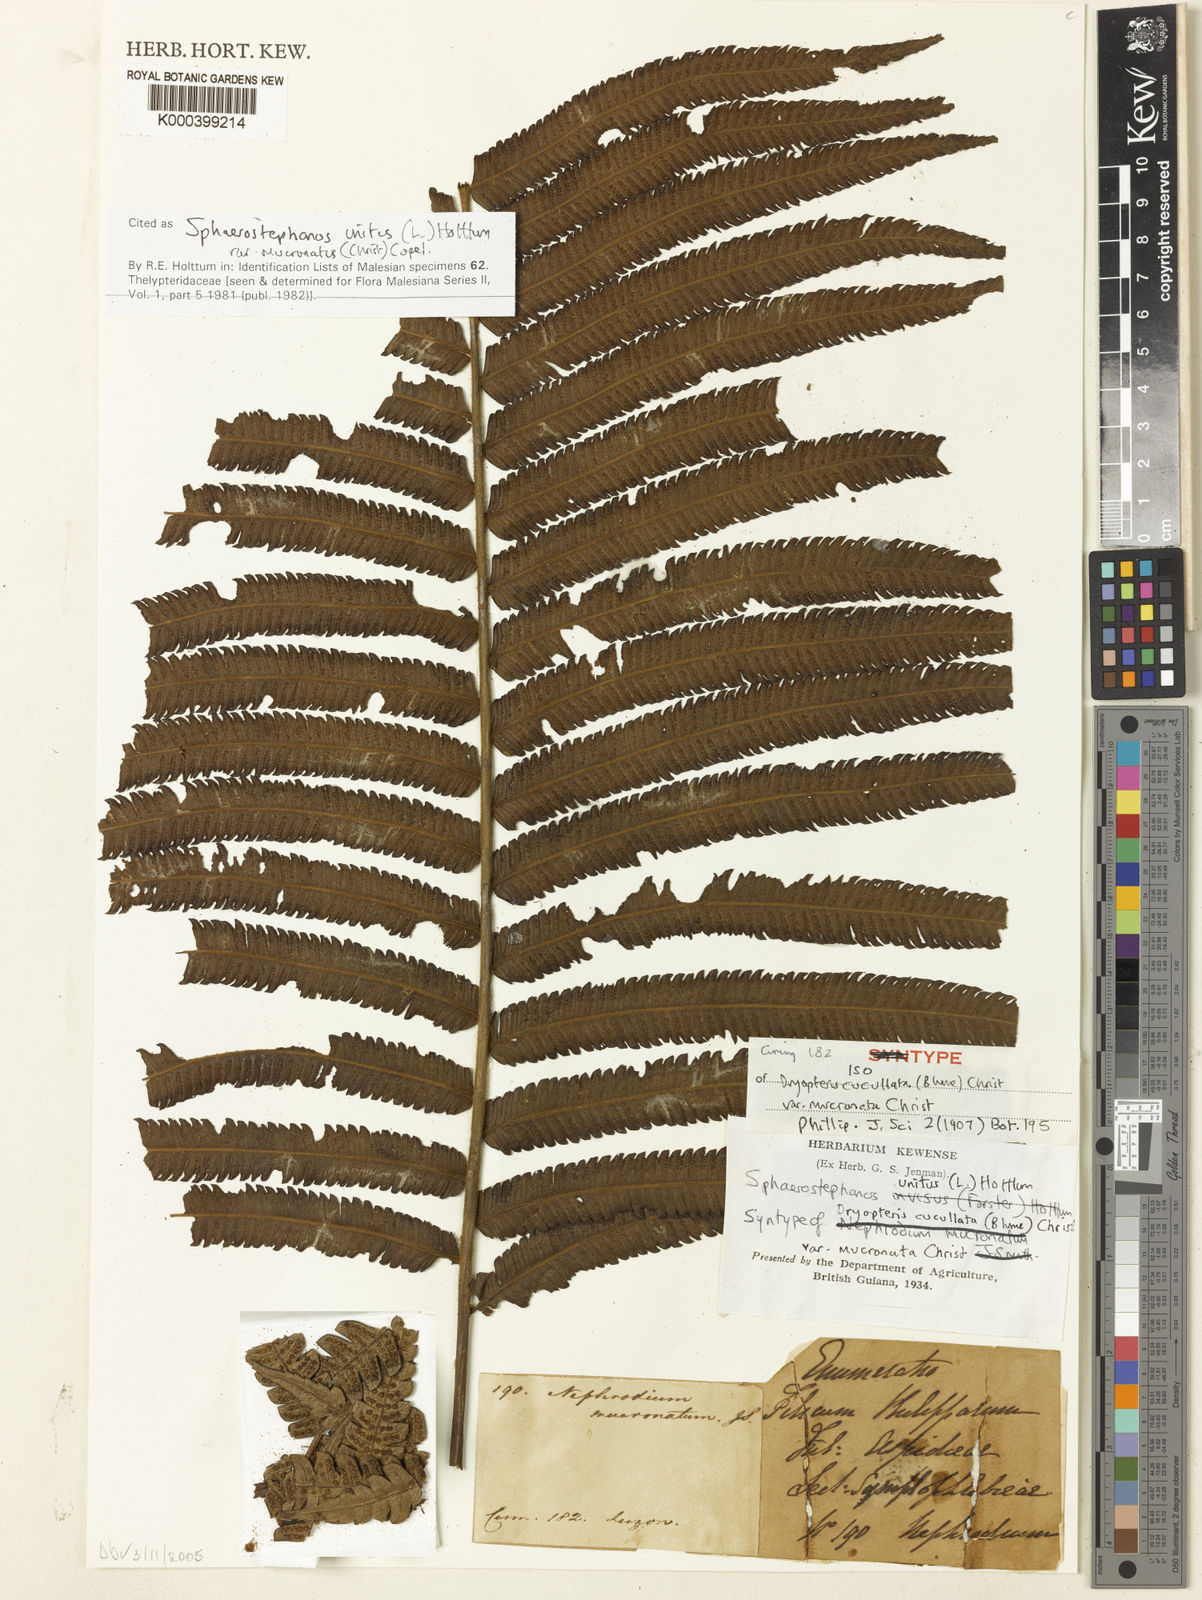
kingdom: Plantae
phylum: Tracheophyta
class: Polypodiopsida
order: Polypodiales
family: Thelypteridaceae
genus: Strophocaulon
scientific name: Strophocaulon unitum
